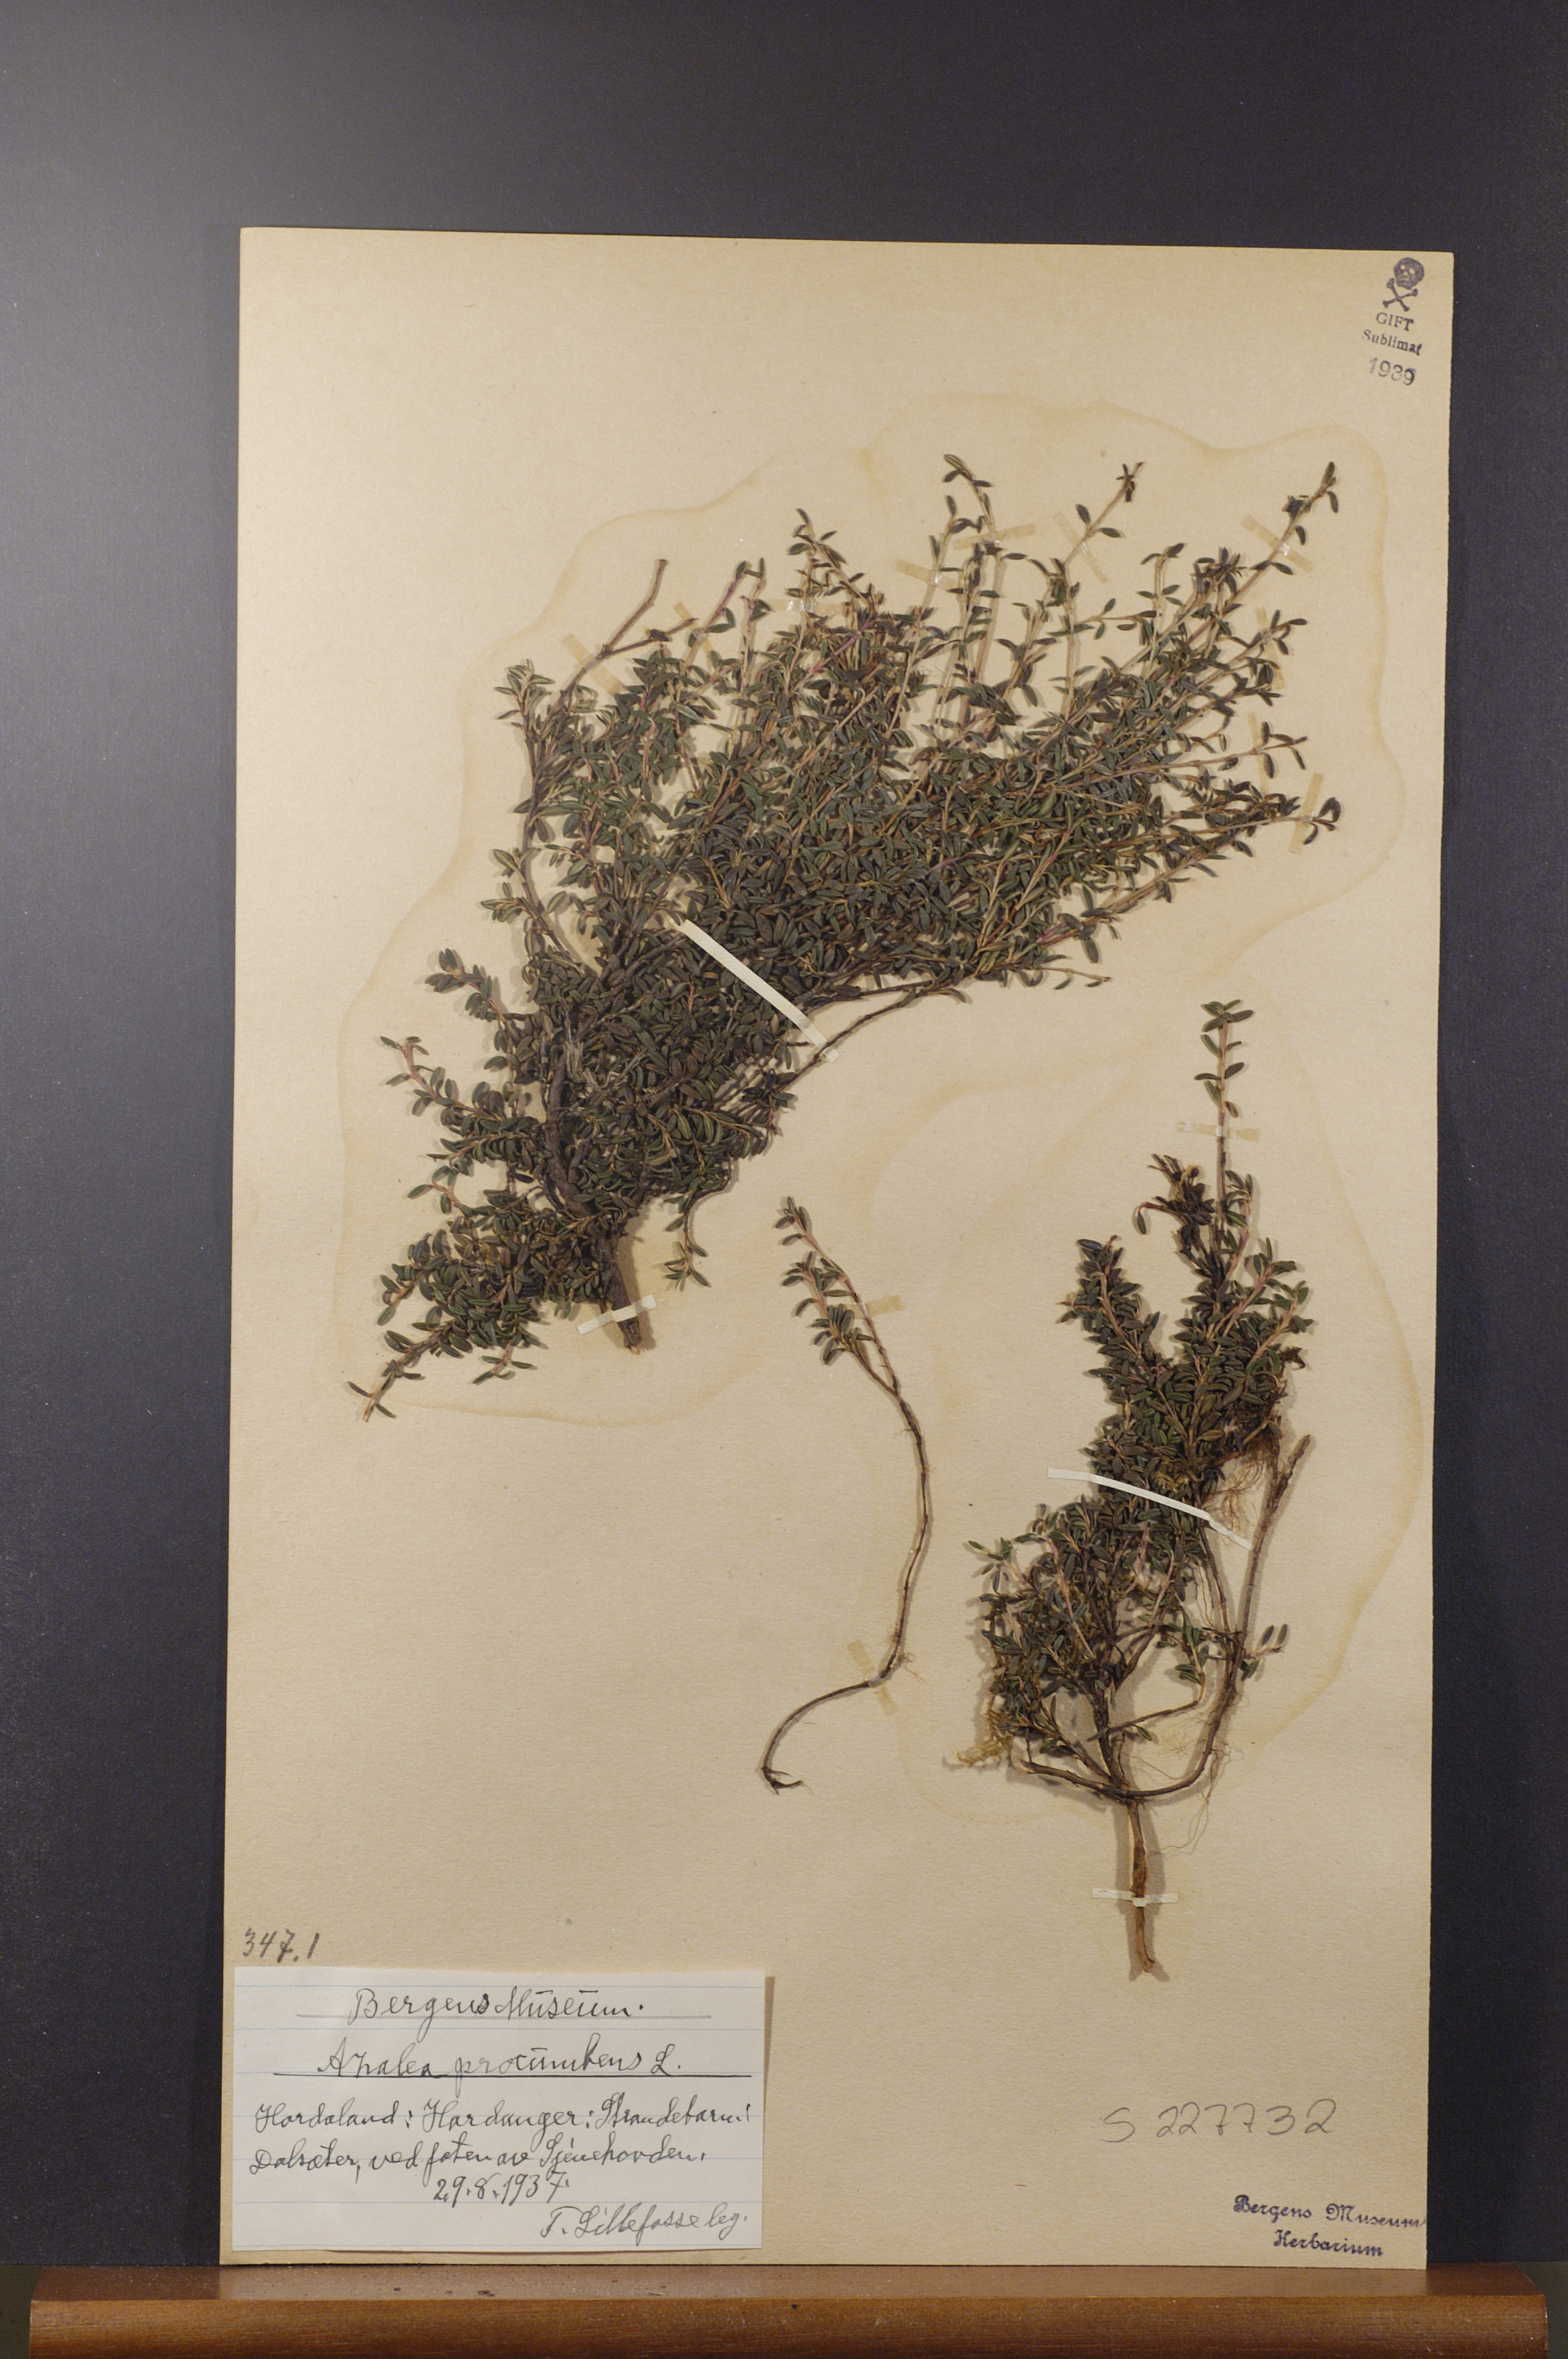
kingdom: Plantae
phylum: Tracheophyta
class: Magnoliopsida
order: Ericales
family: Ericaceae
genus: Kalmia
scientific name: Kalmia procumbens
